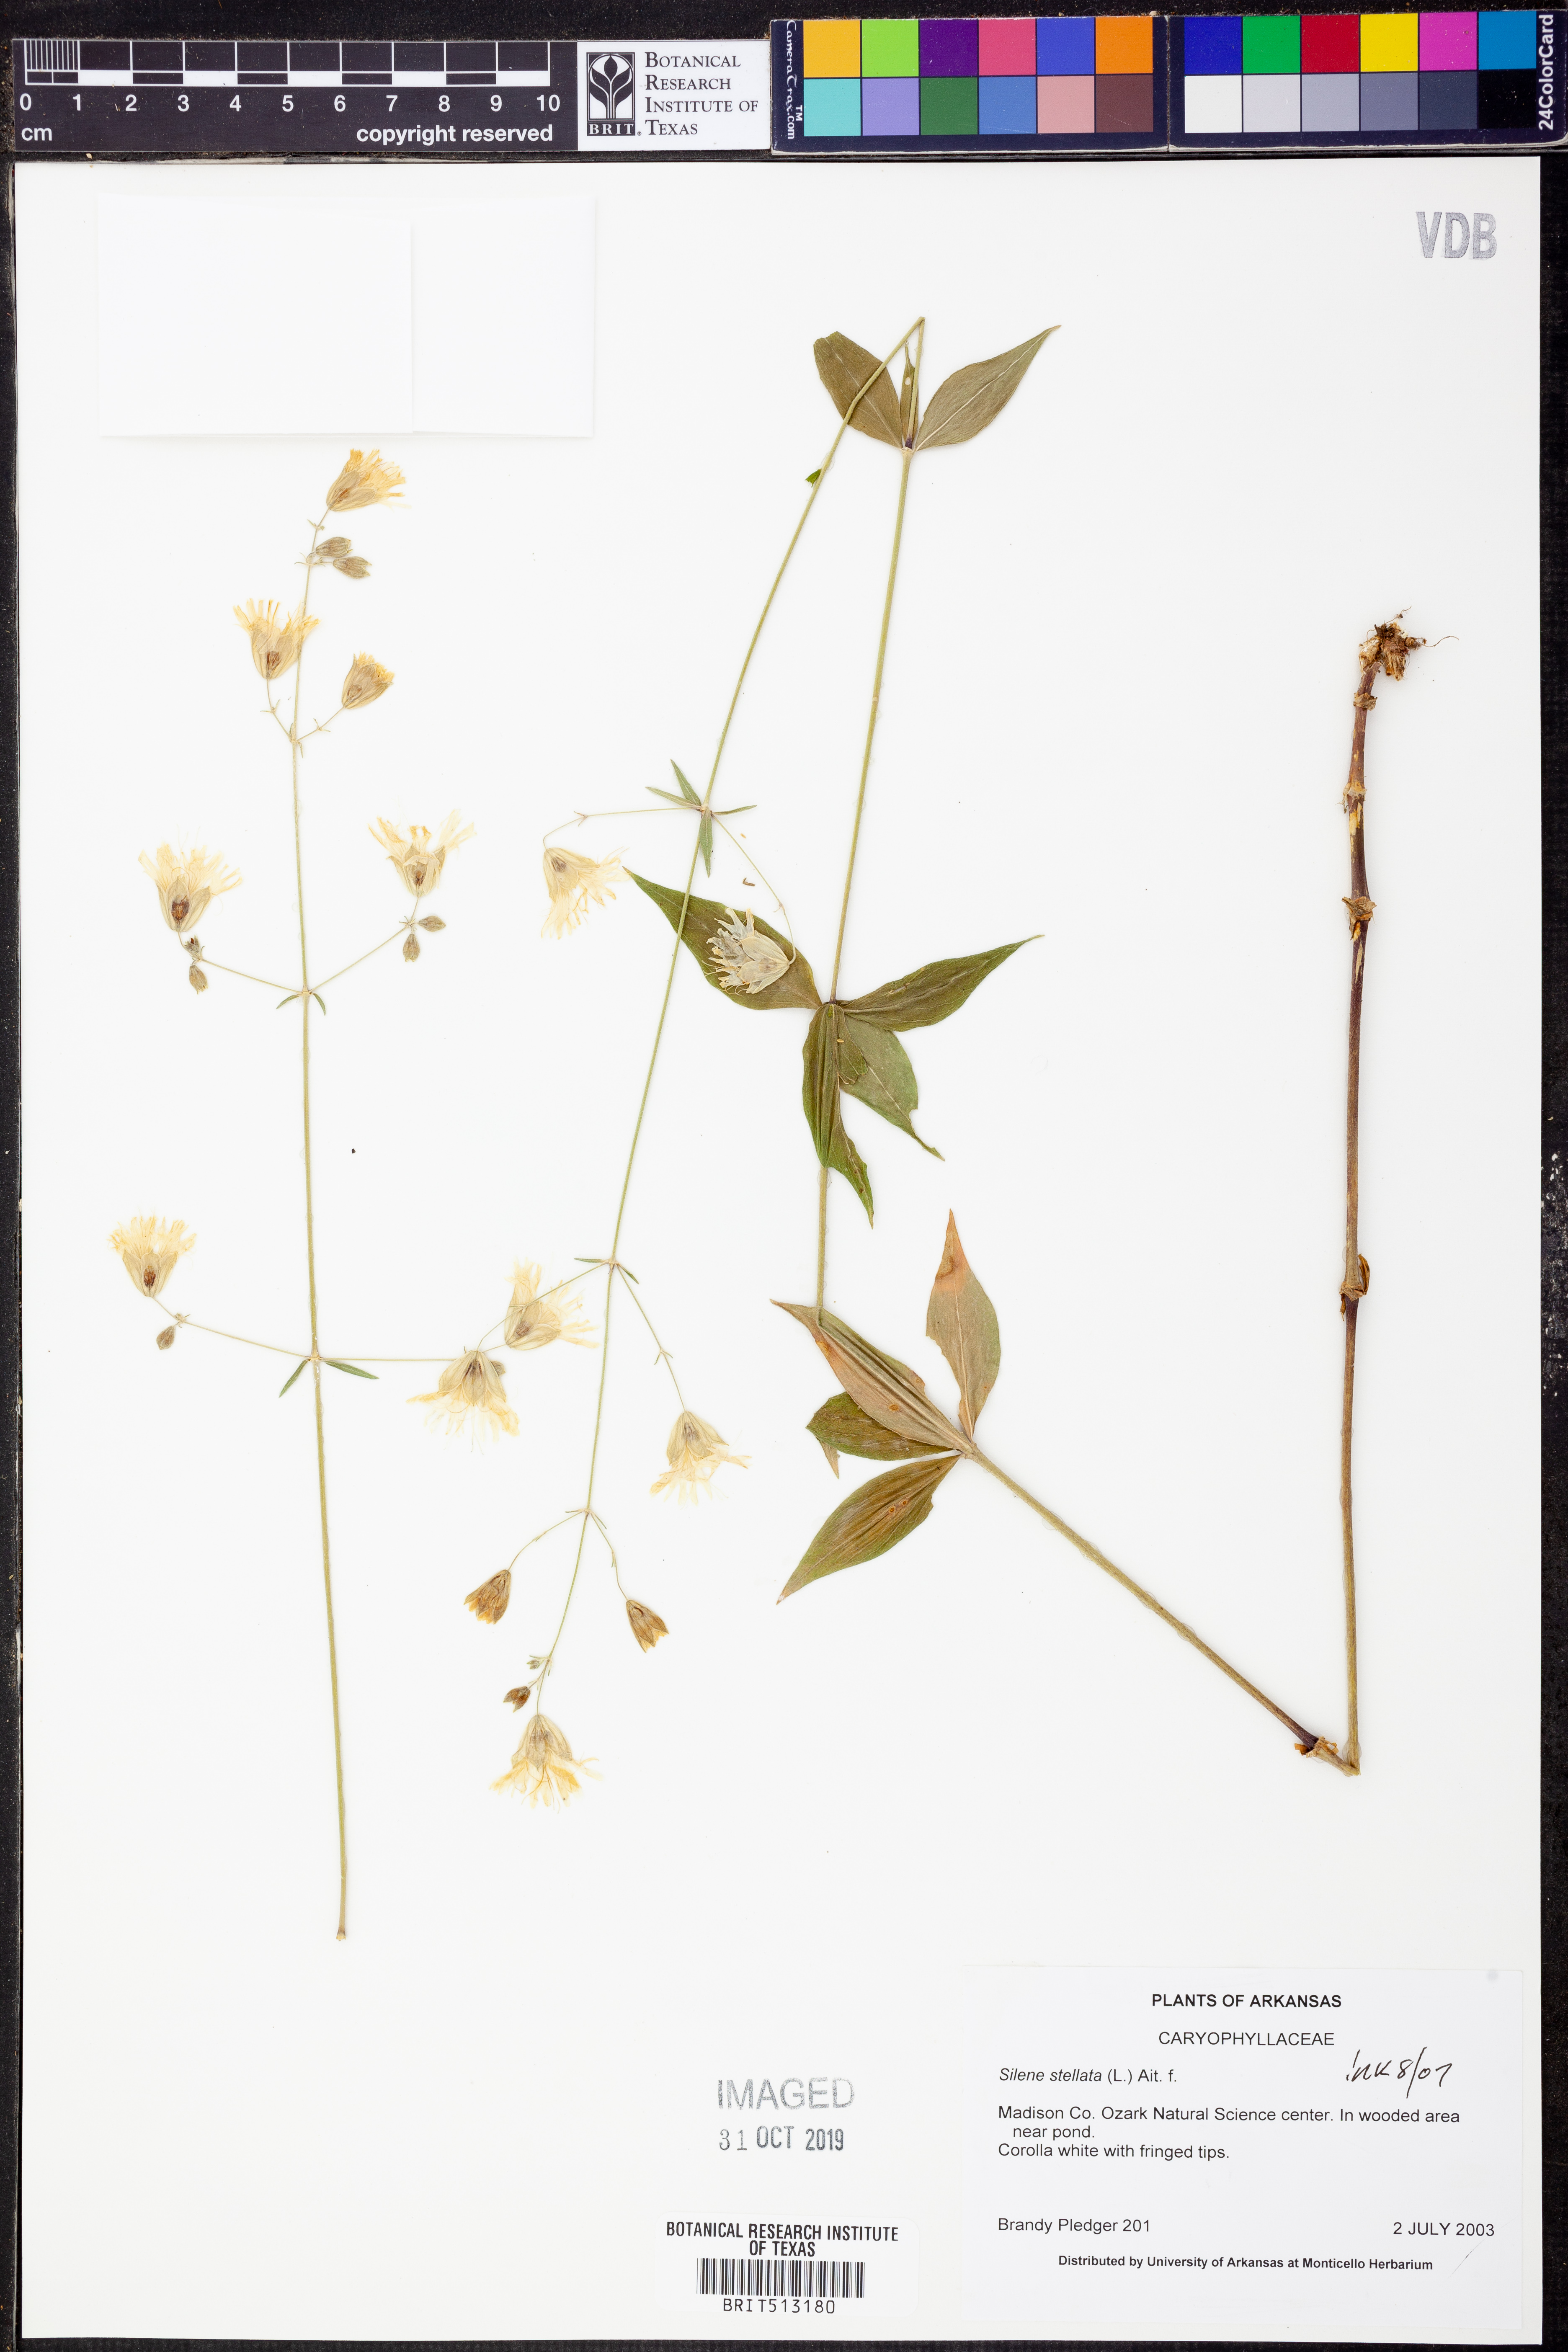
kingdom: Plantae
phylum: Tracheophyta
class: Magnoliopsida
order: Caryophyllales
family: Caryophyllaceae
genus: Silene
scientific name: Silene stellata
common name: Starry campion
